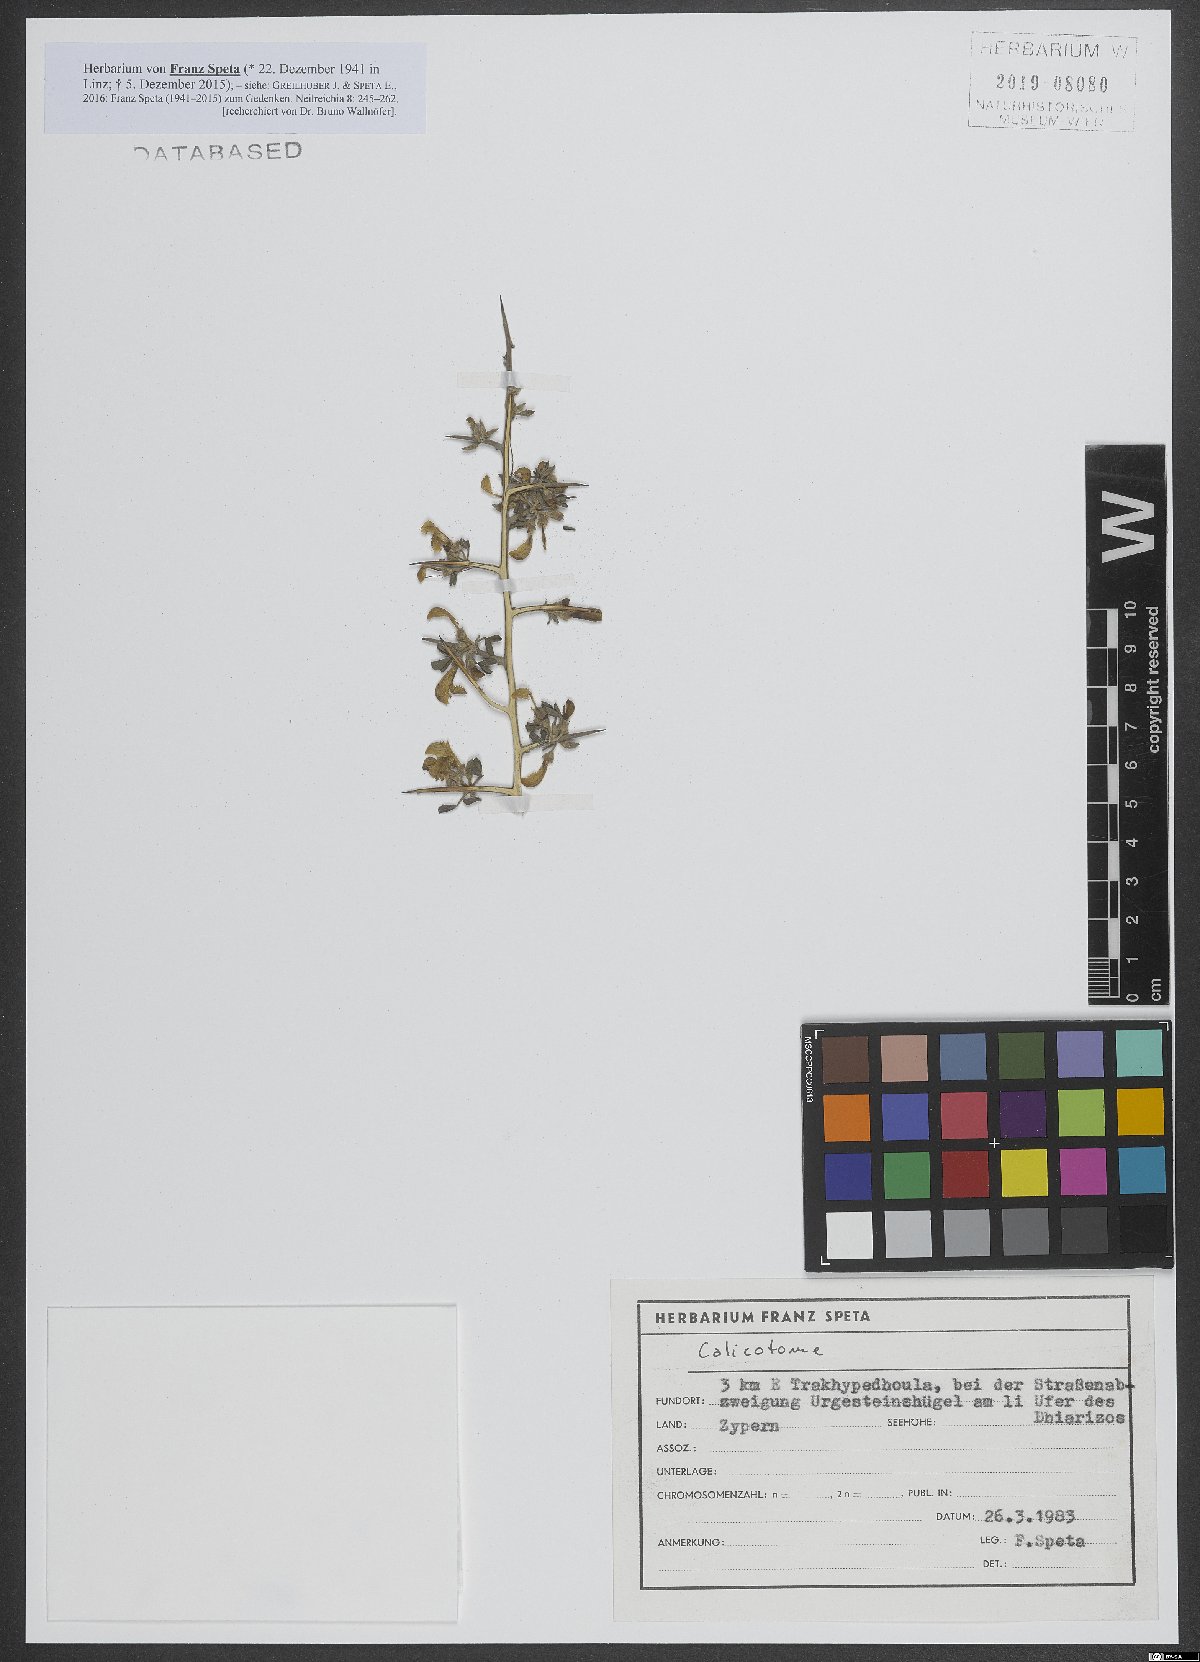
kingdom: Plantae
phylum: Tracheophyta
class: Magnoliopsida
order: Fabales
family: Fabaceae
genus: Calicotome
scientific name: Calicotome
